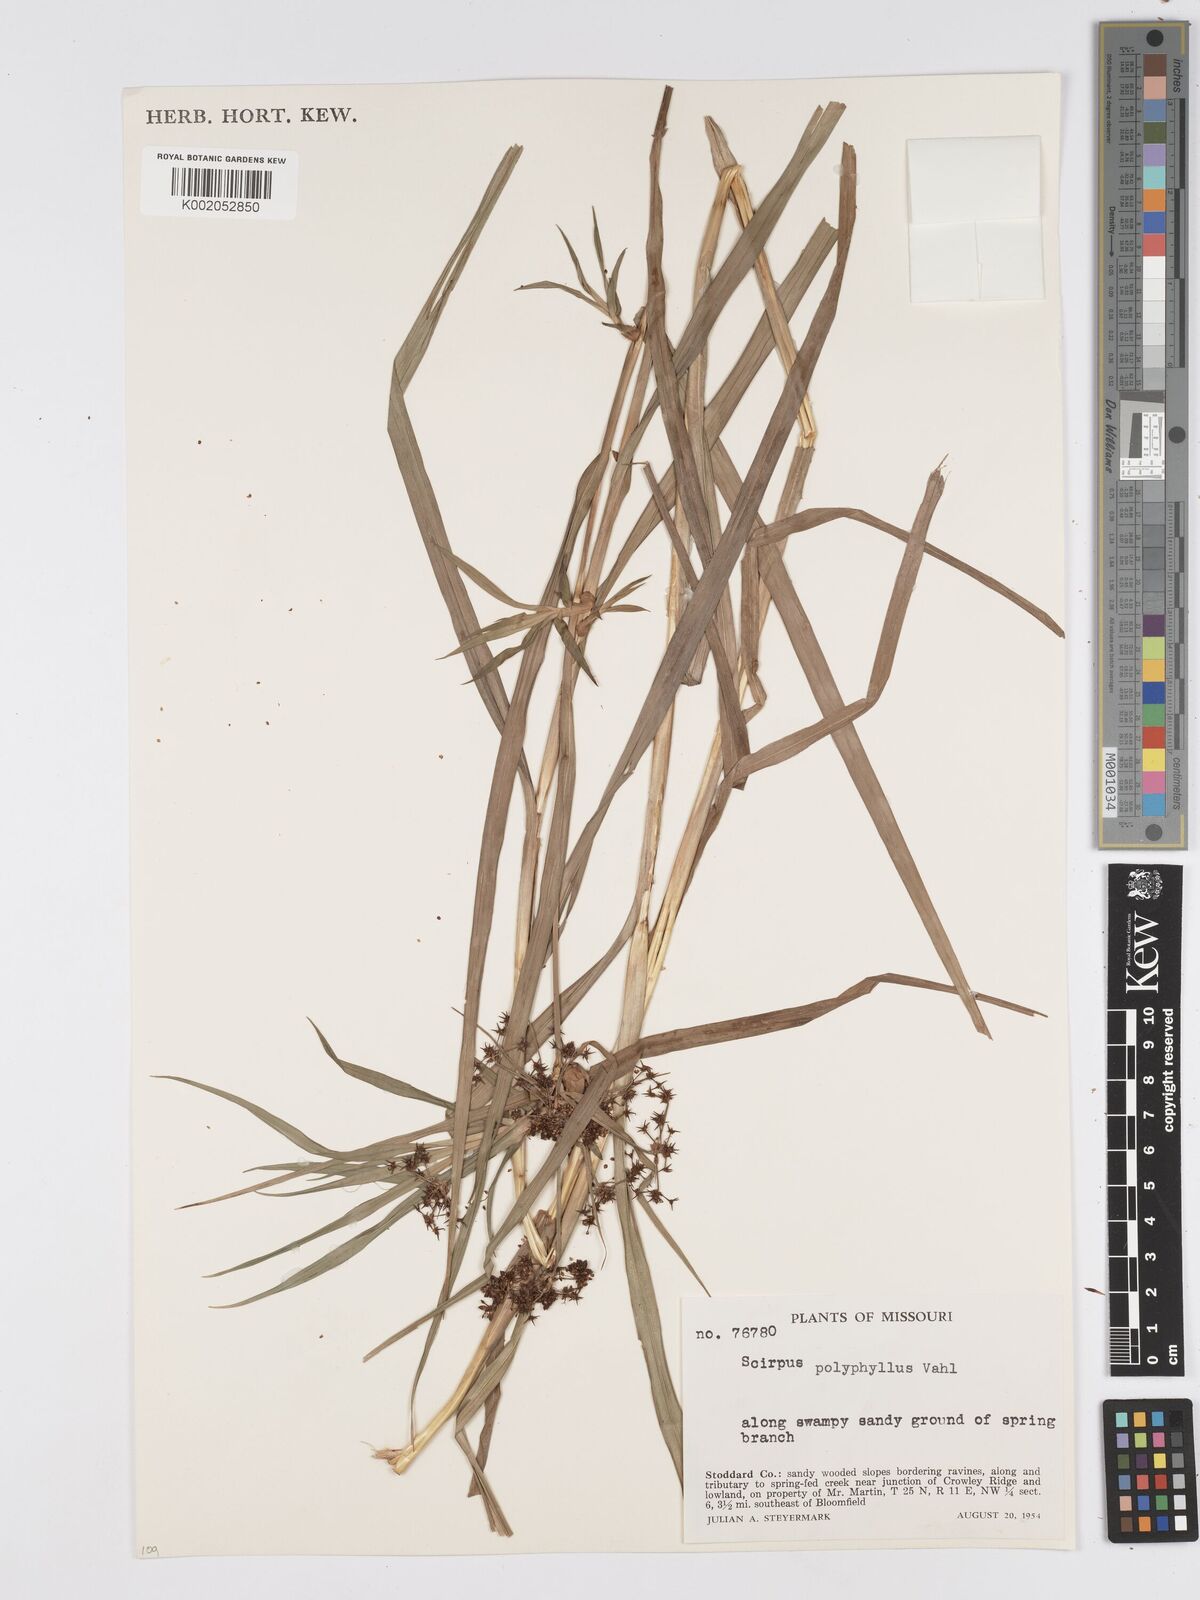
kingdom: Plantae
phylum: Tracheophyta
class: Liliopsida
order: Poales
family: Cyperaceae
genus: Scirpus
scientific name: Scirpus polyphyllus
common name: Leafy bulrush
